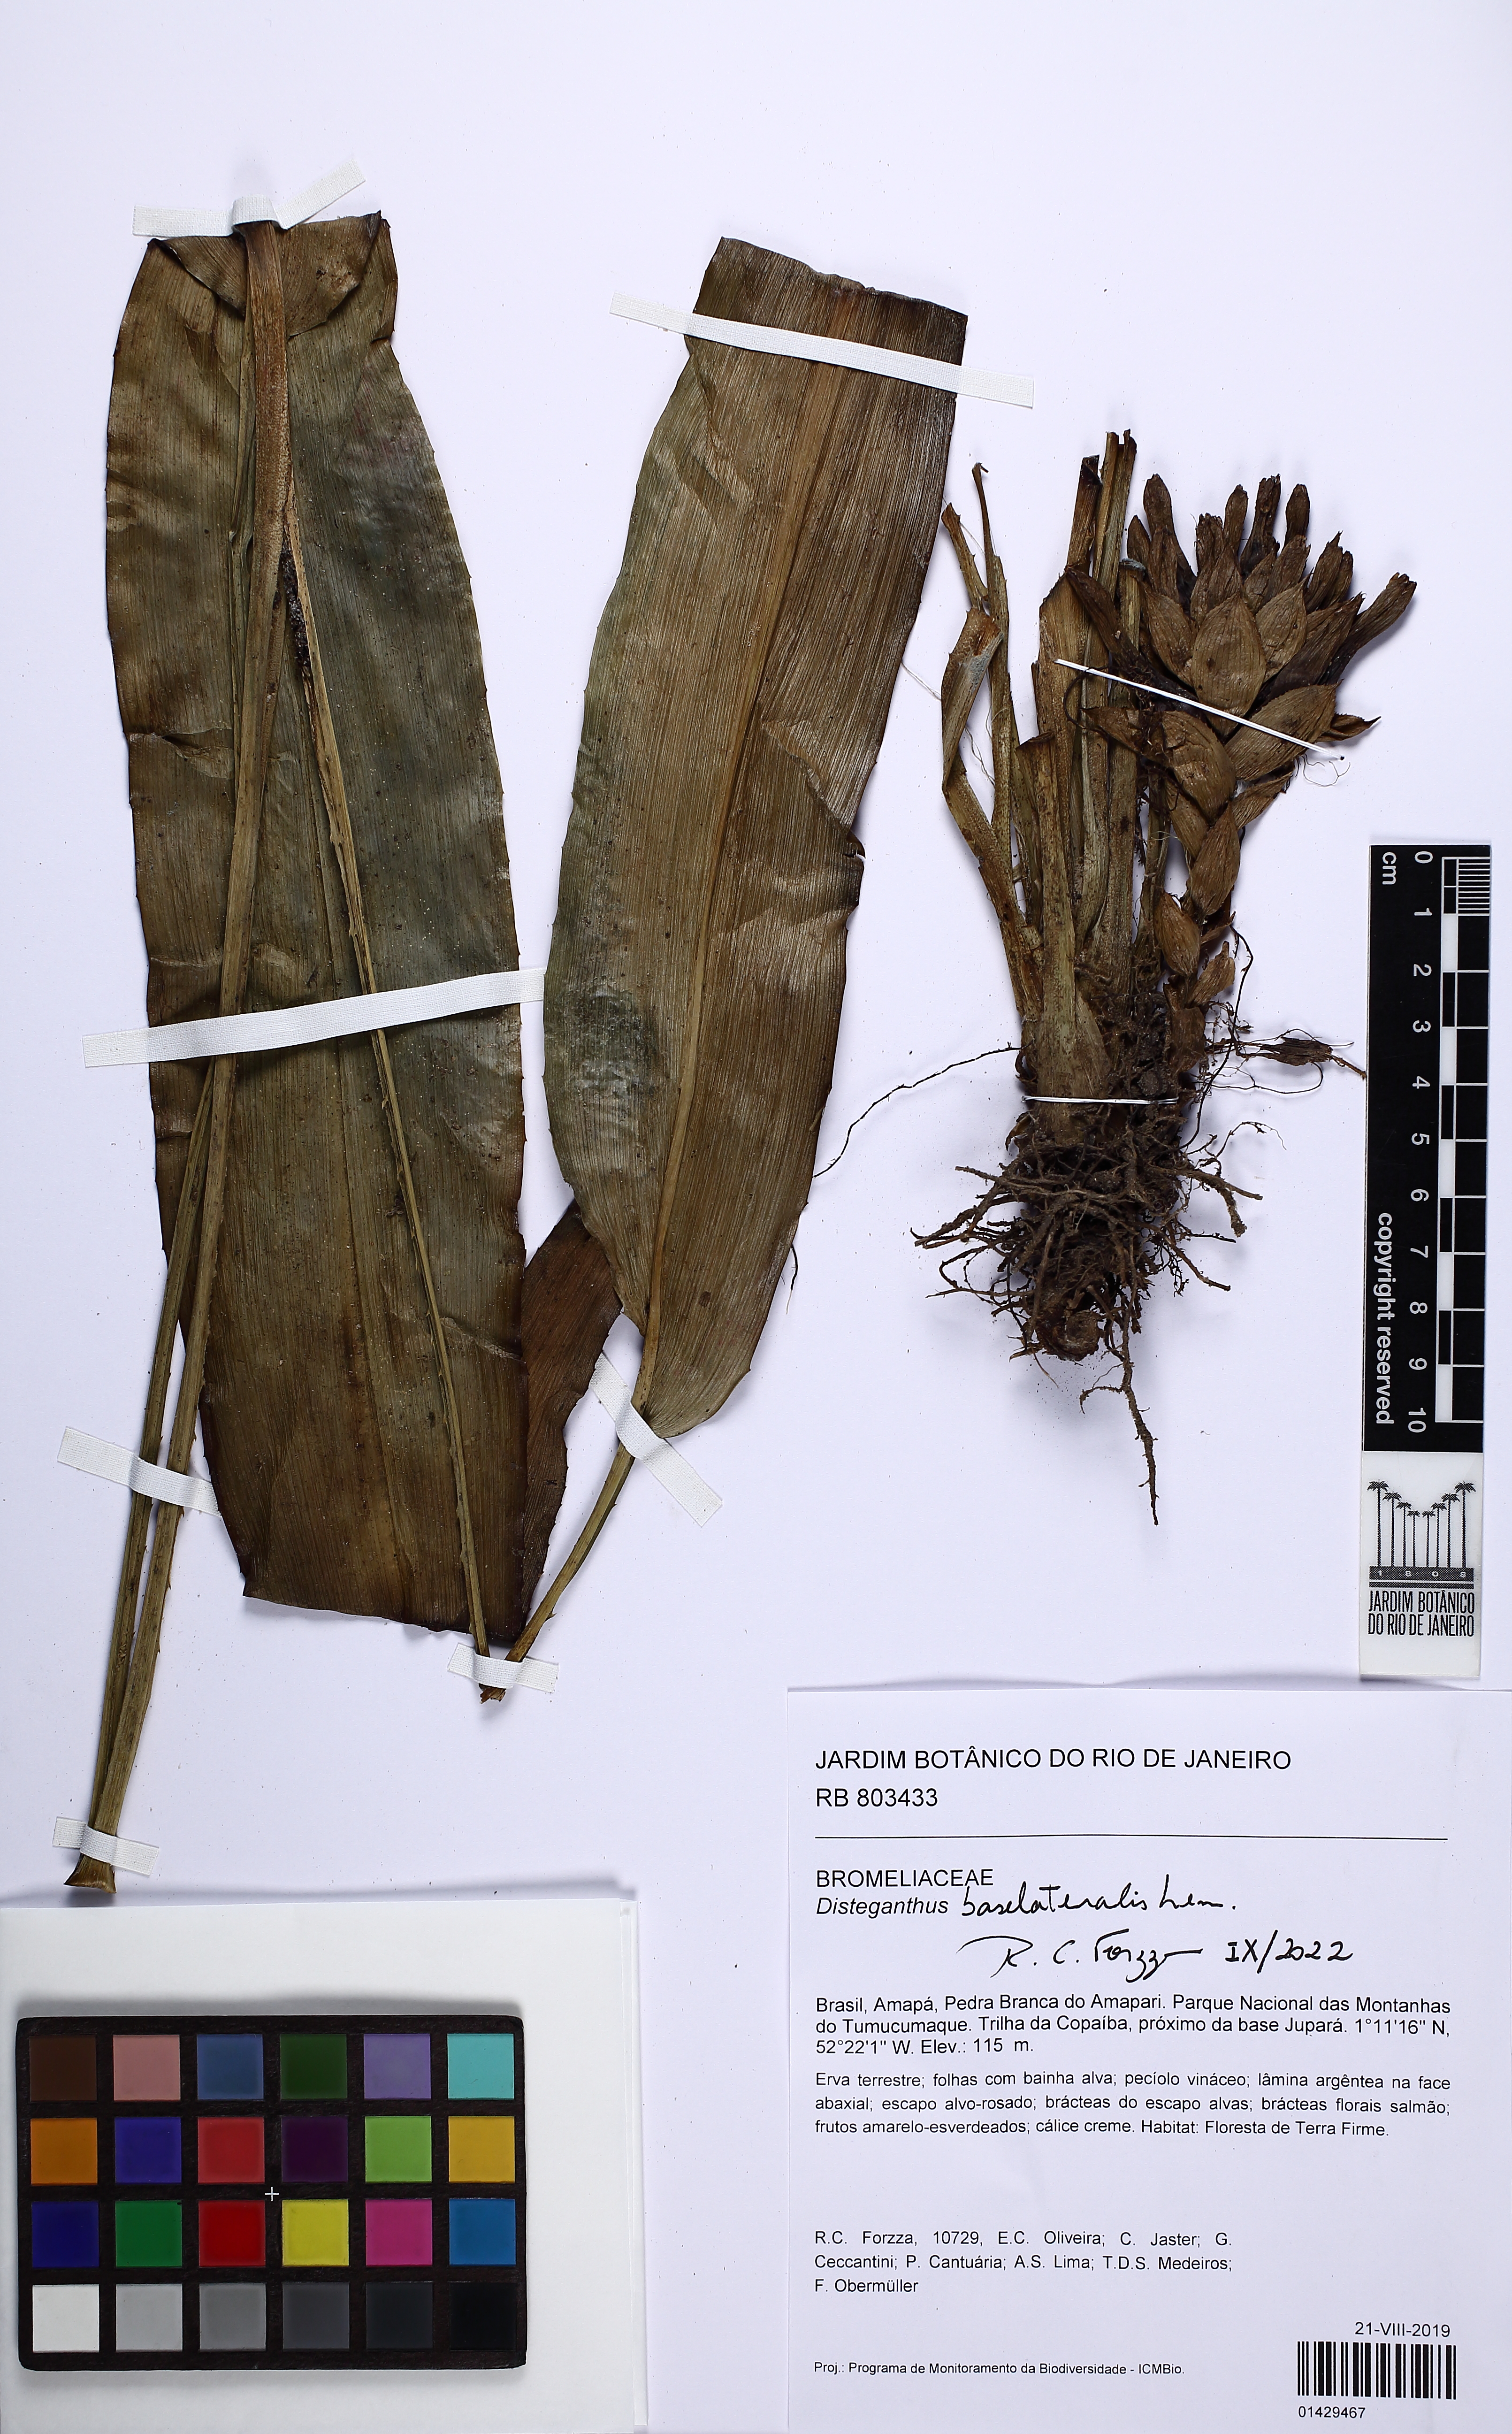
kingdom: Plantae
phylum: Tracheophyta
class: Liliopsida
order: Poales
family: Bromeliaceae
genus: Disteganthus
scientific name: Disteganthus basilateralis
